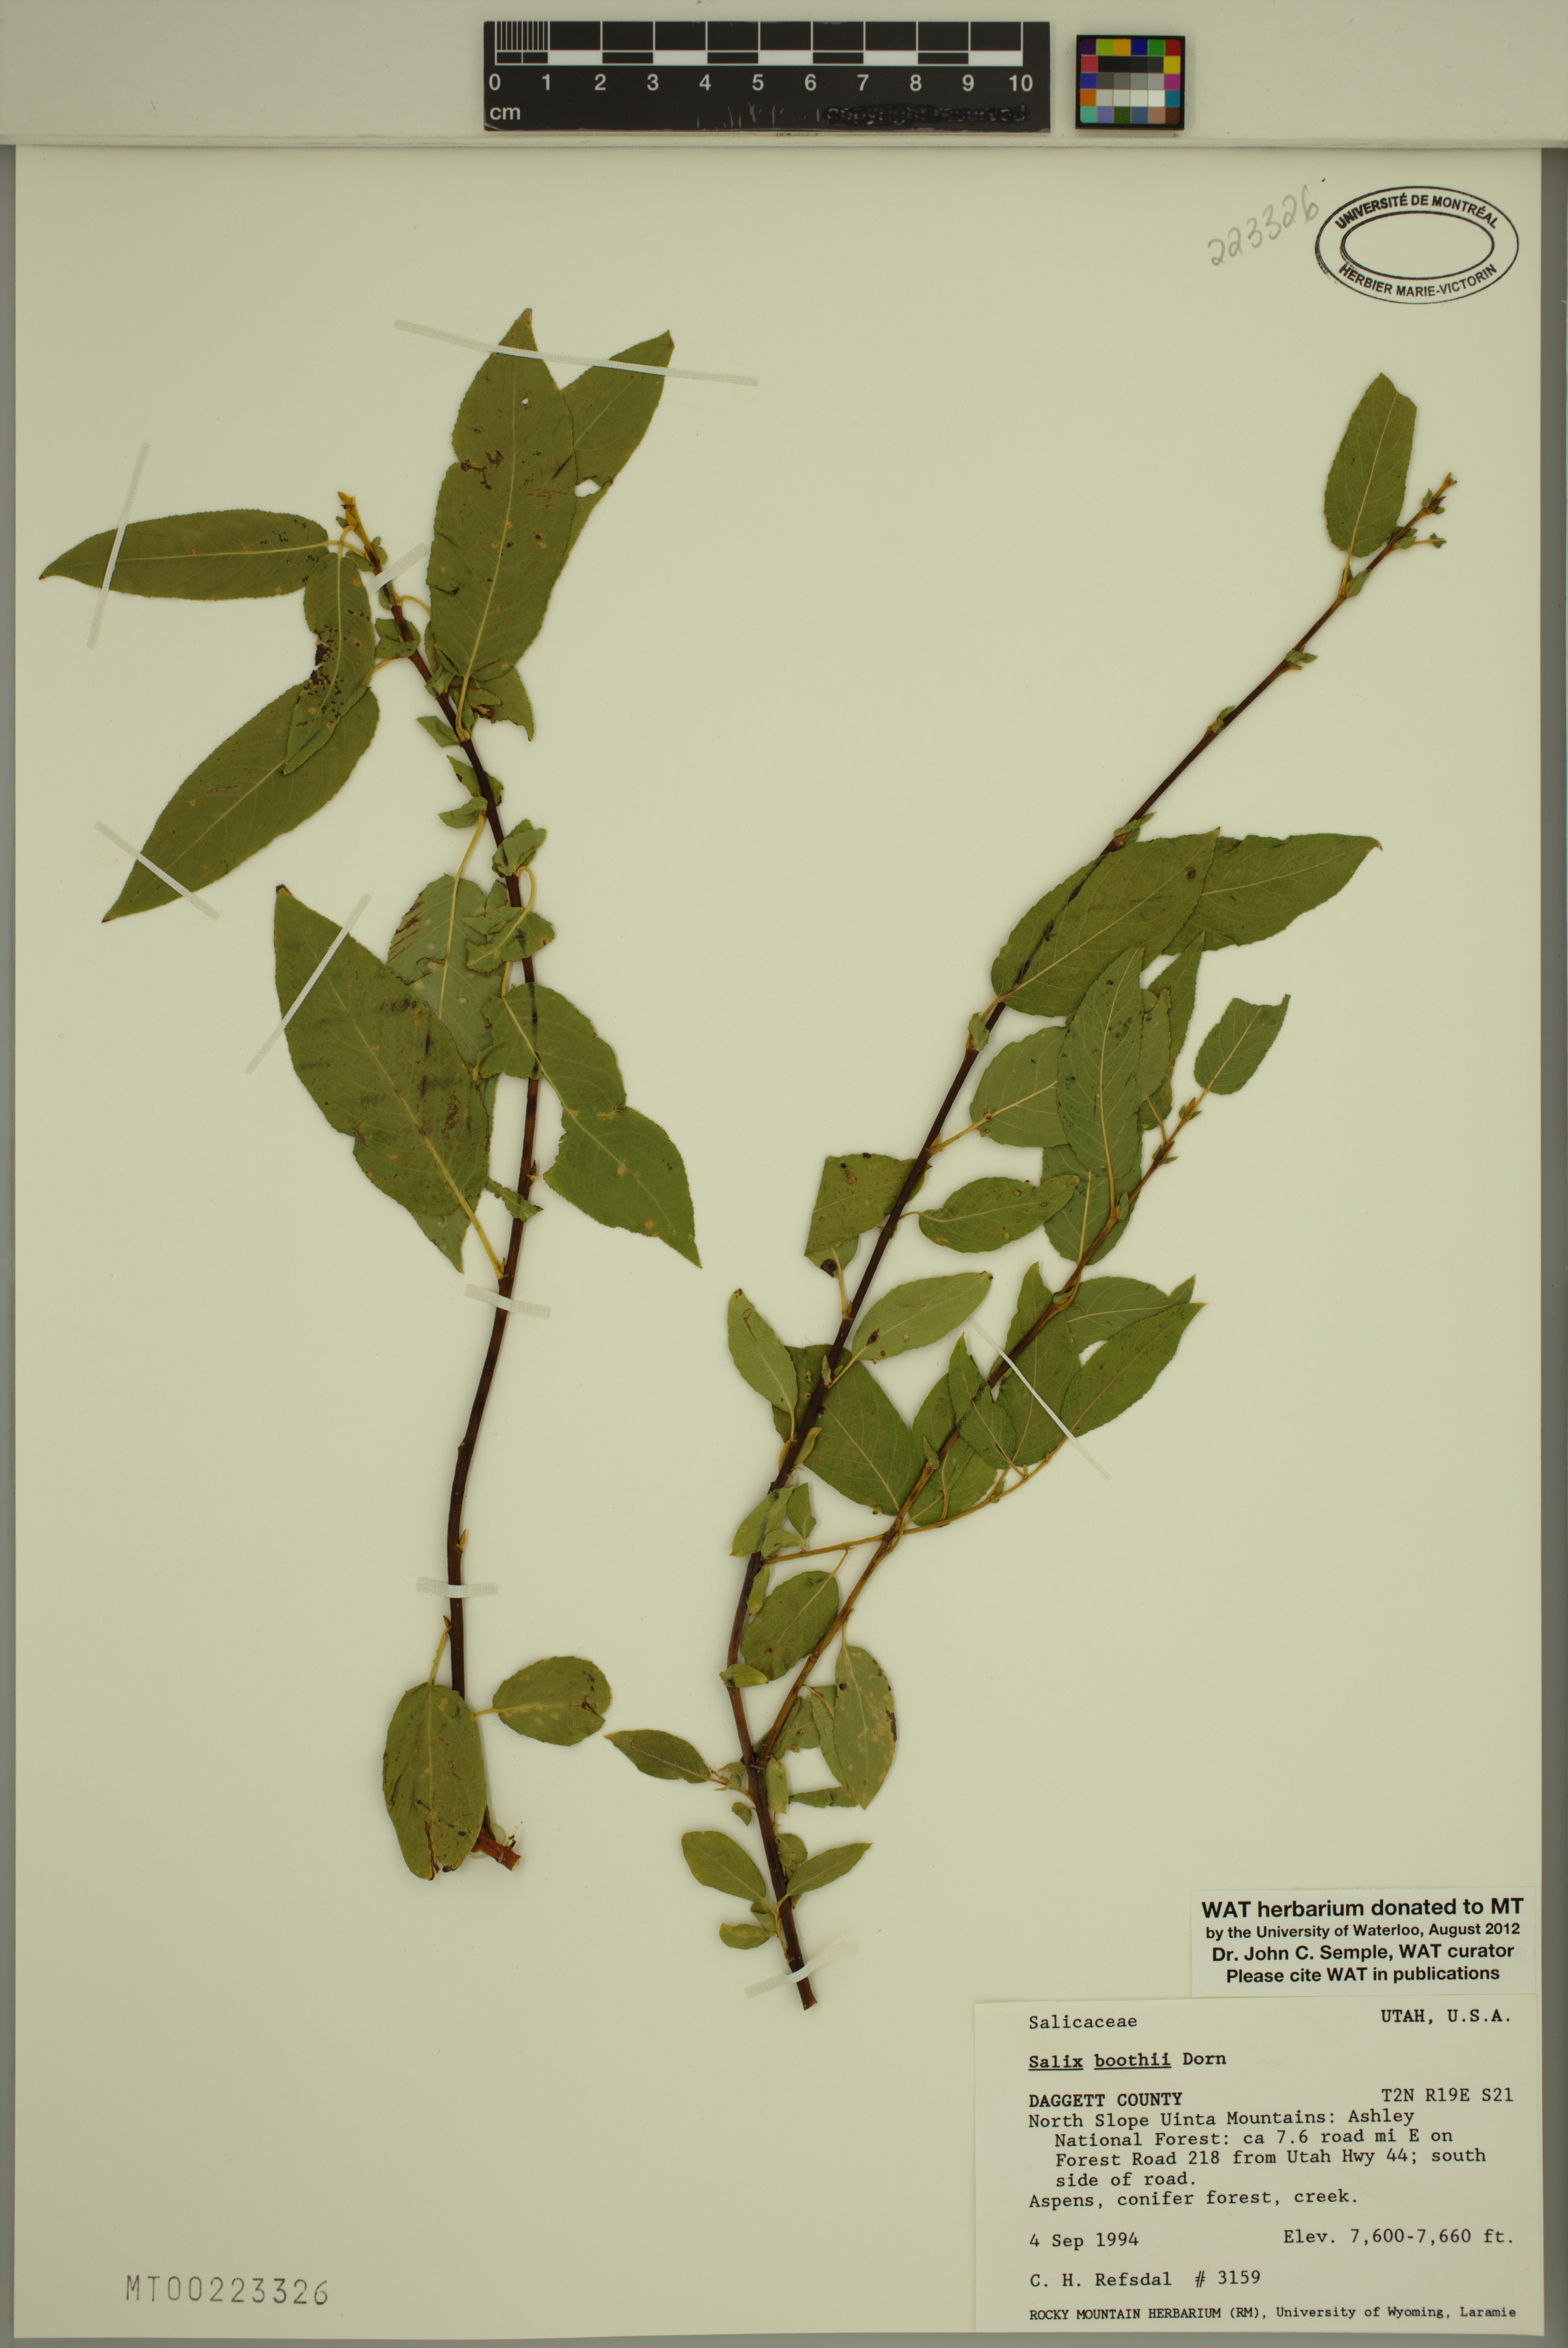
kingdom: Plantae
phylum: Tracheophyta
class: Magnoliopsida
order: Malpighiales
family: Salicaceae
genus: Salix
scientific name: Salix boothii
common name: Booth's willow
